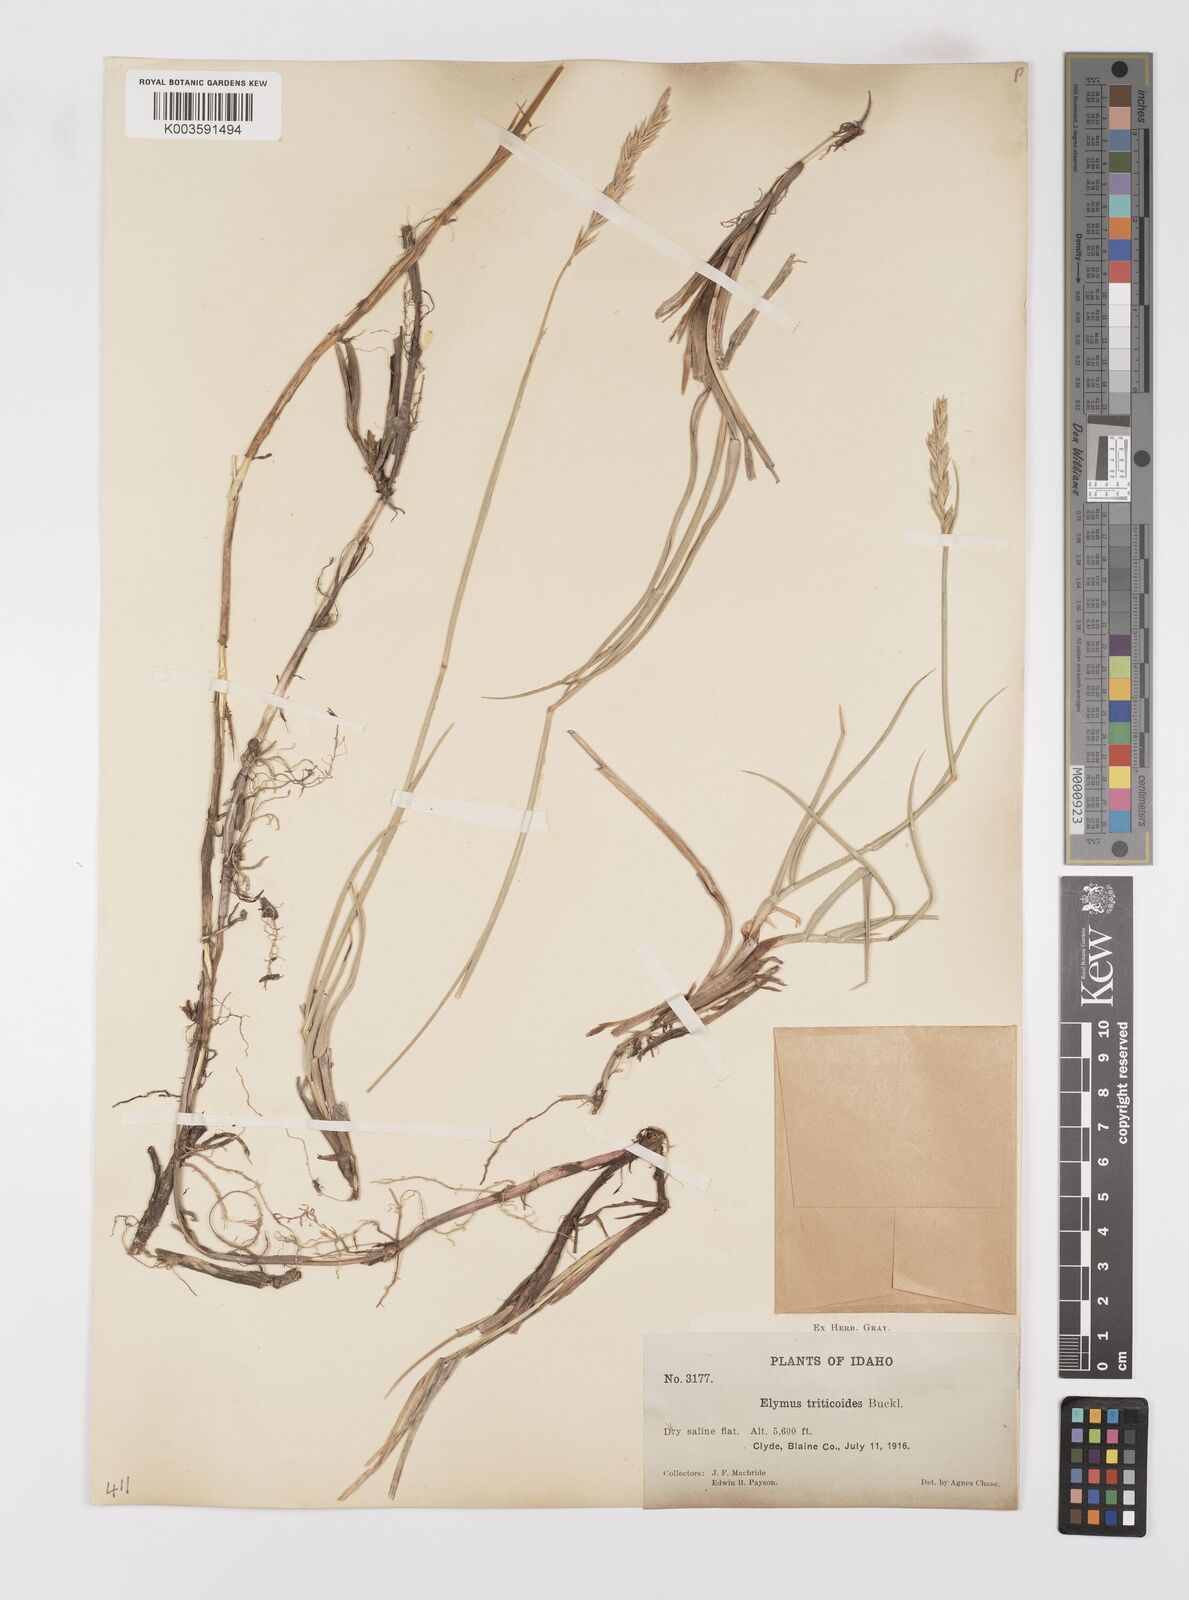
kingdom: Plantae
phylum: Tracheophyta
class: Liliopsida
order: Poales
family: Poaceae
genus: Leymus
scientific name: Leymus triticoides
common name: Beardless wild rye
